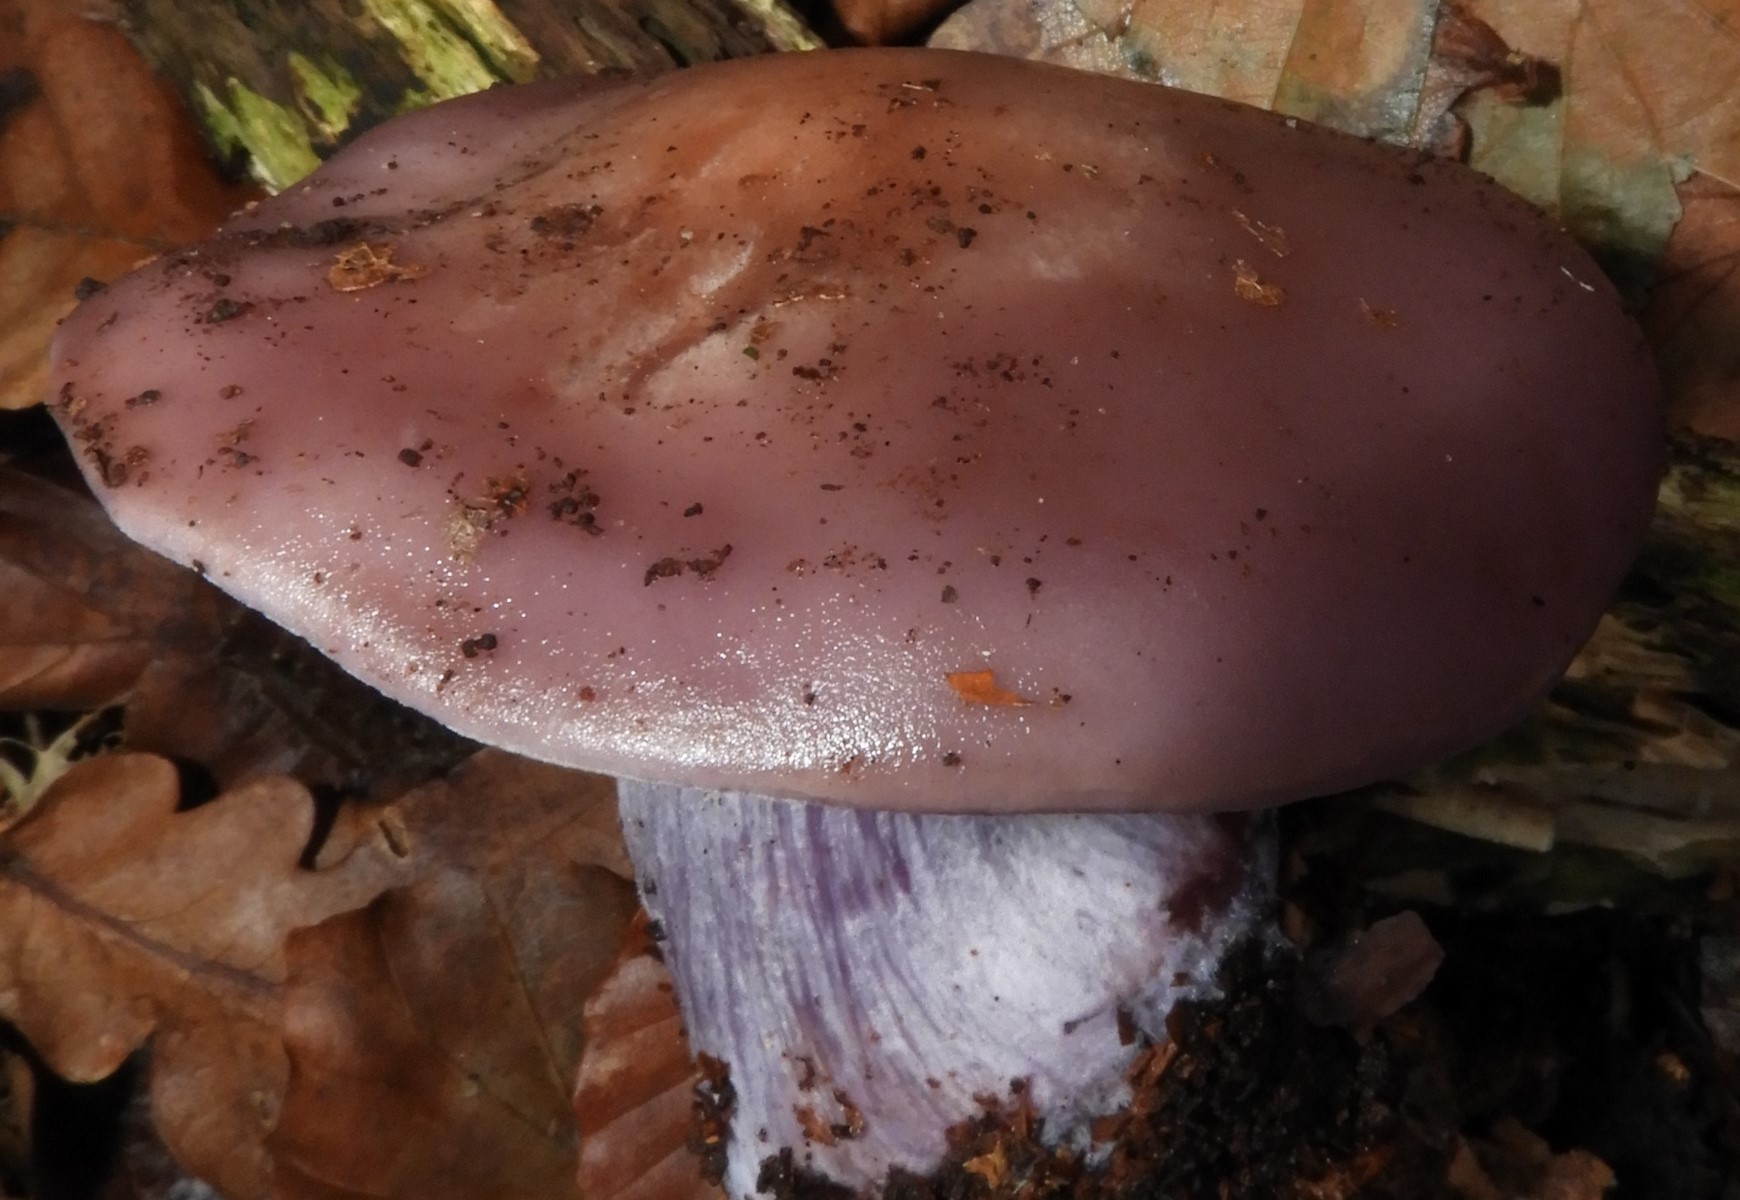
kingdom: Fungi
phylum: Basidiomycota
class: Agaricomycetes
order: Agaricales
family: Tricholomataceae
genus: Lepista
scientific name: Lepista nuda
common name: violet hekseringshat
